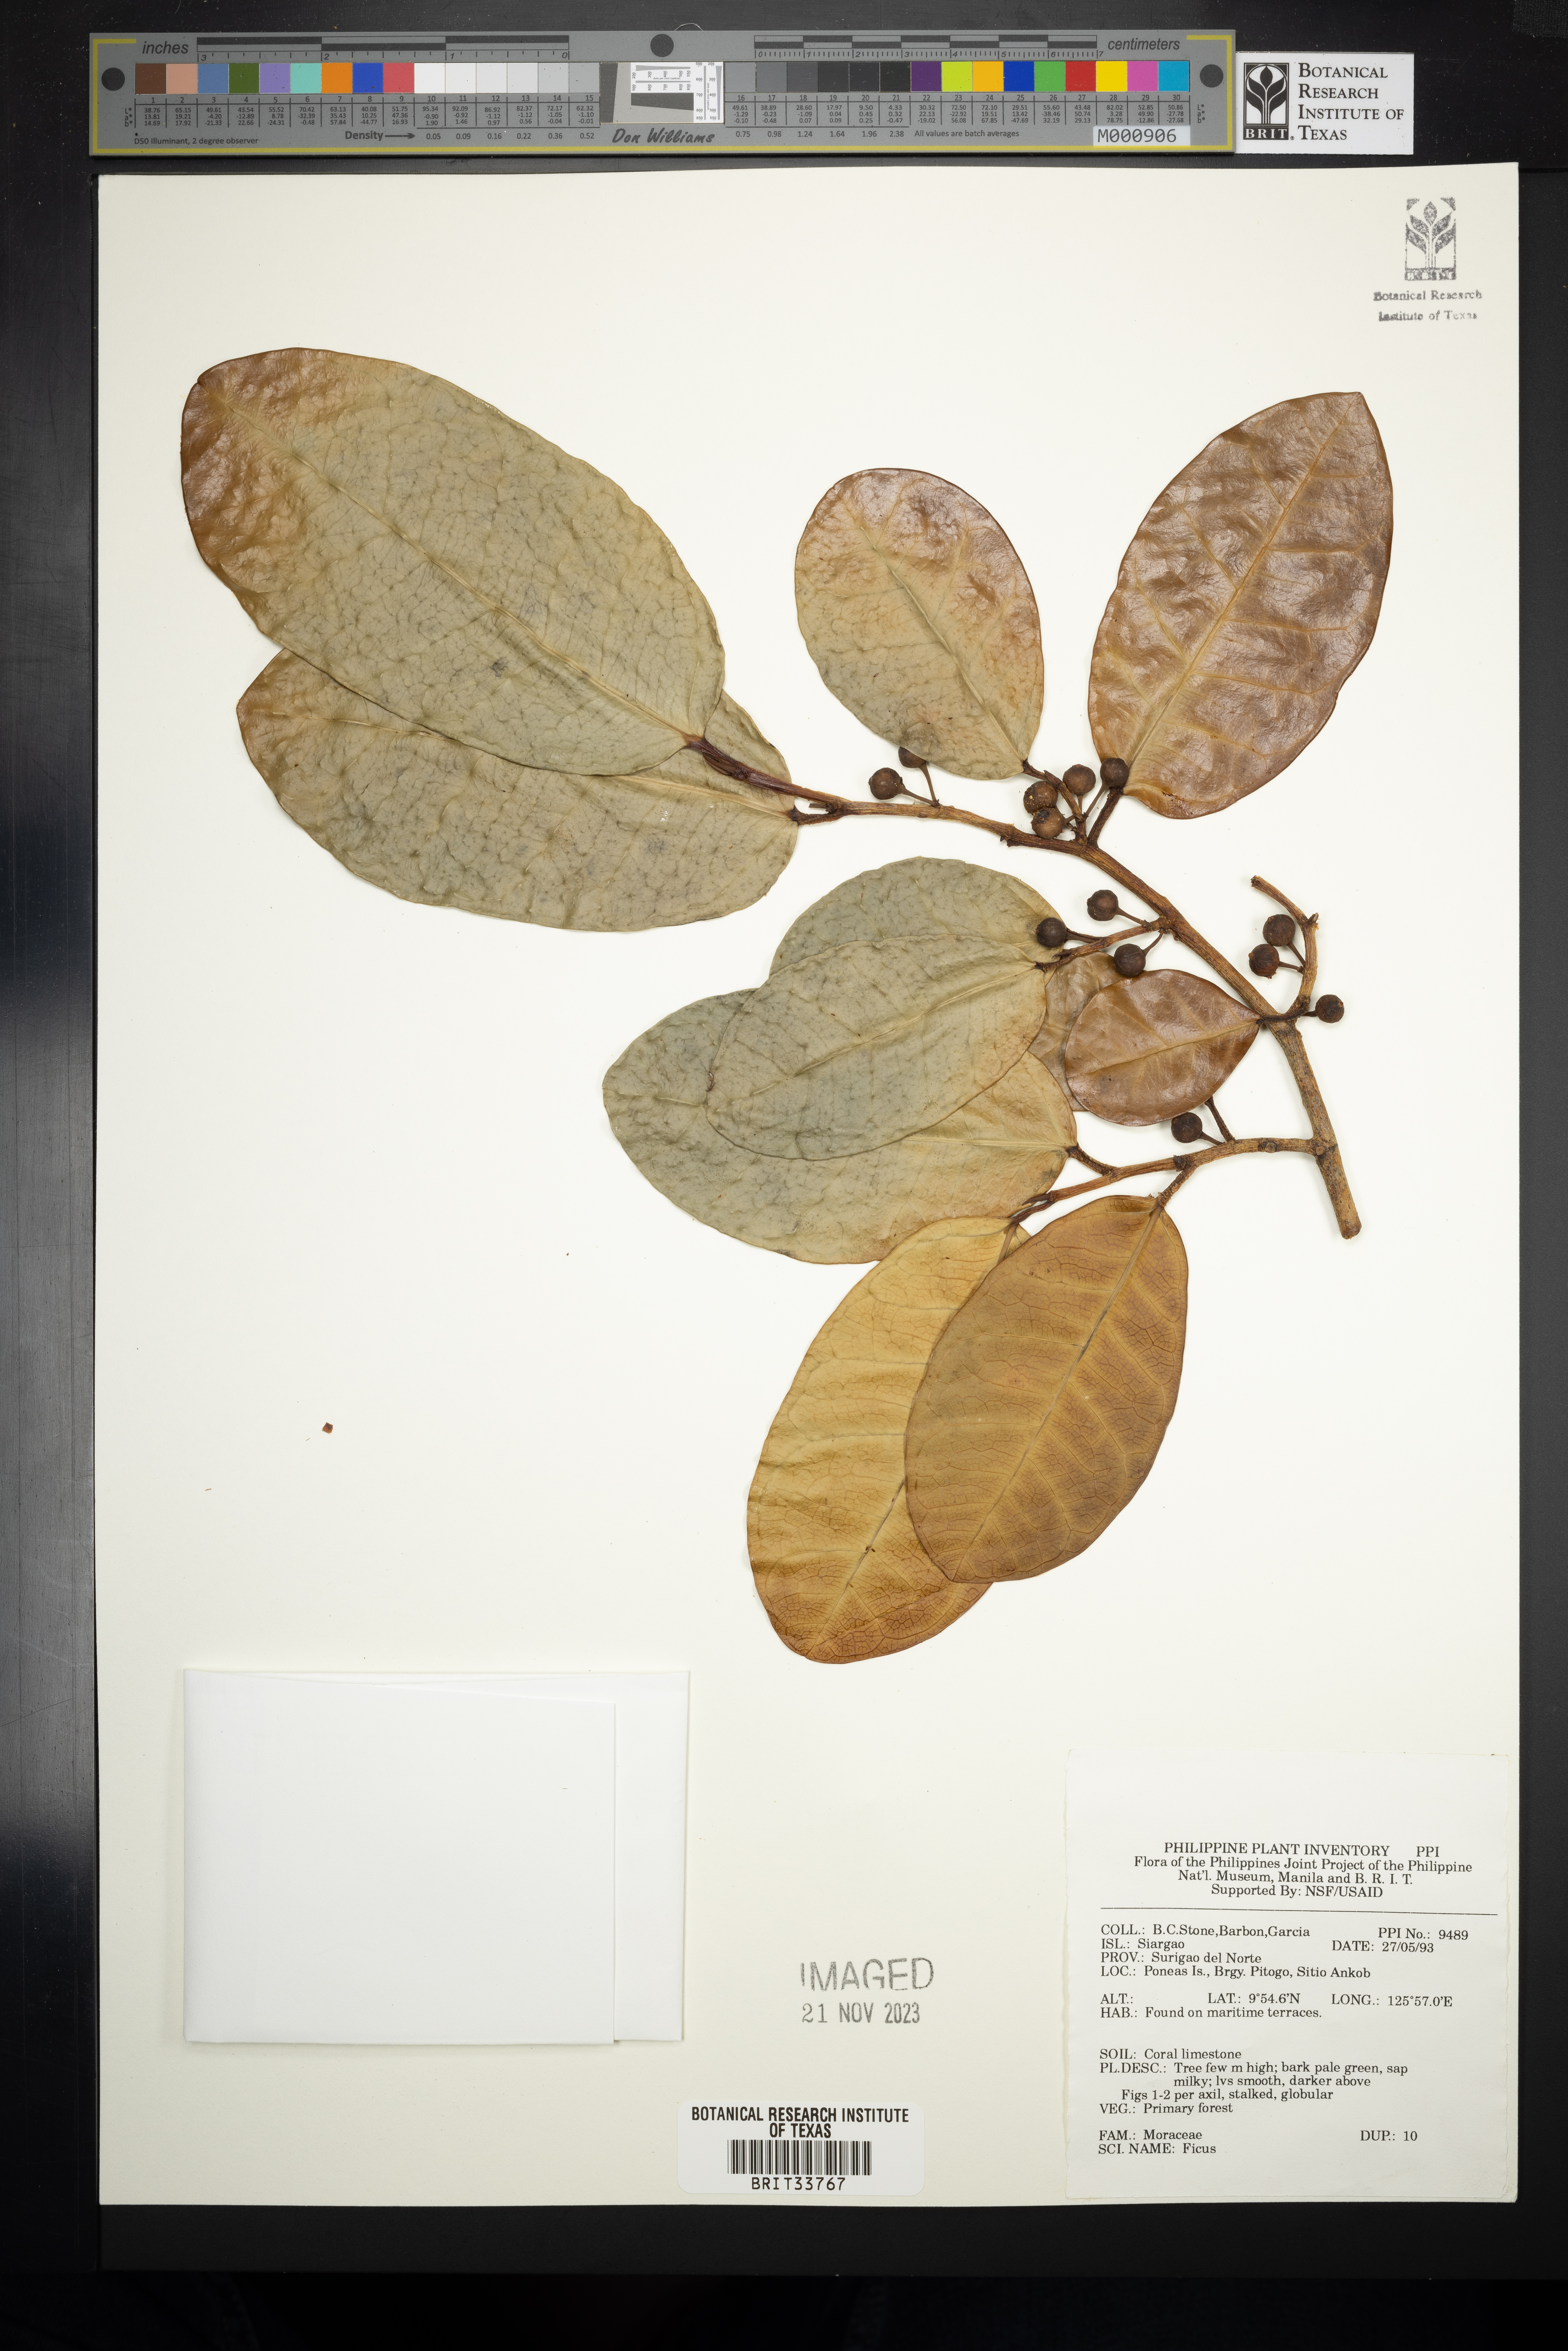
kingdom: Plantae
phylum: Tracheophyta
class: Magnoliopsida
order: Rosales
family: Moraceae
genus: Ficus
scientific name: Ficus
